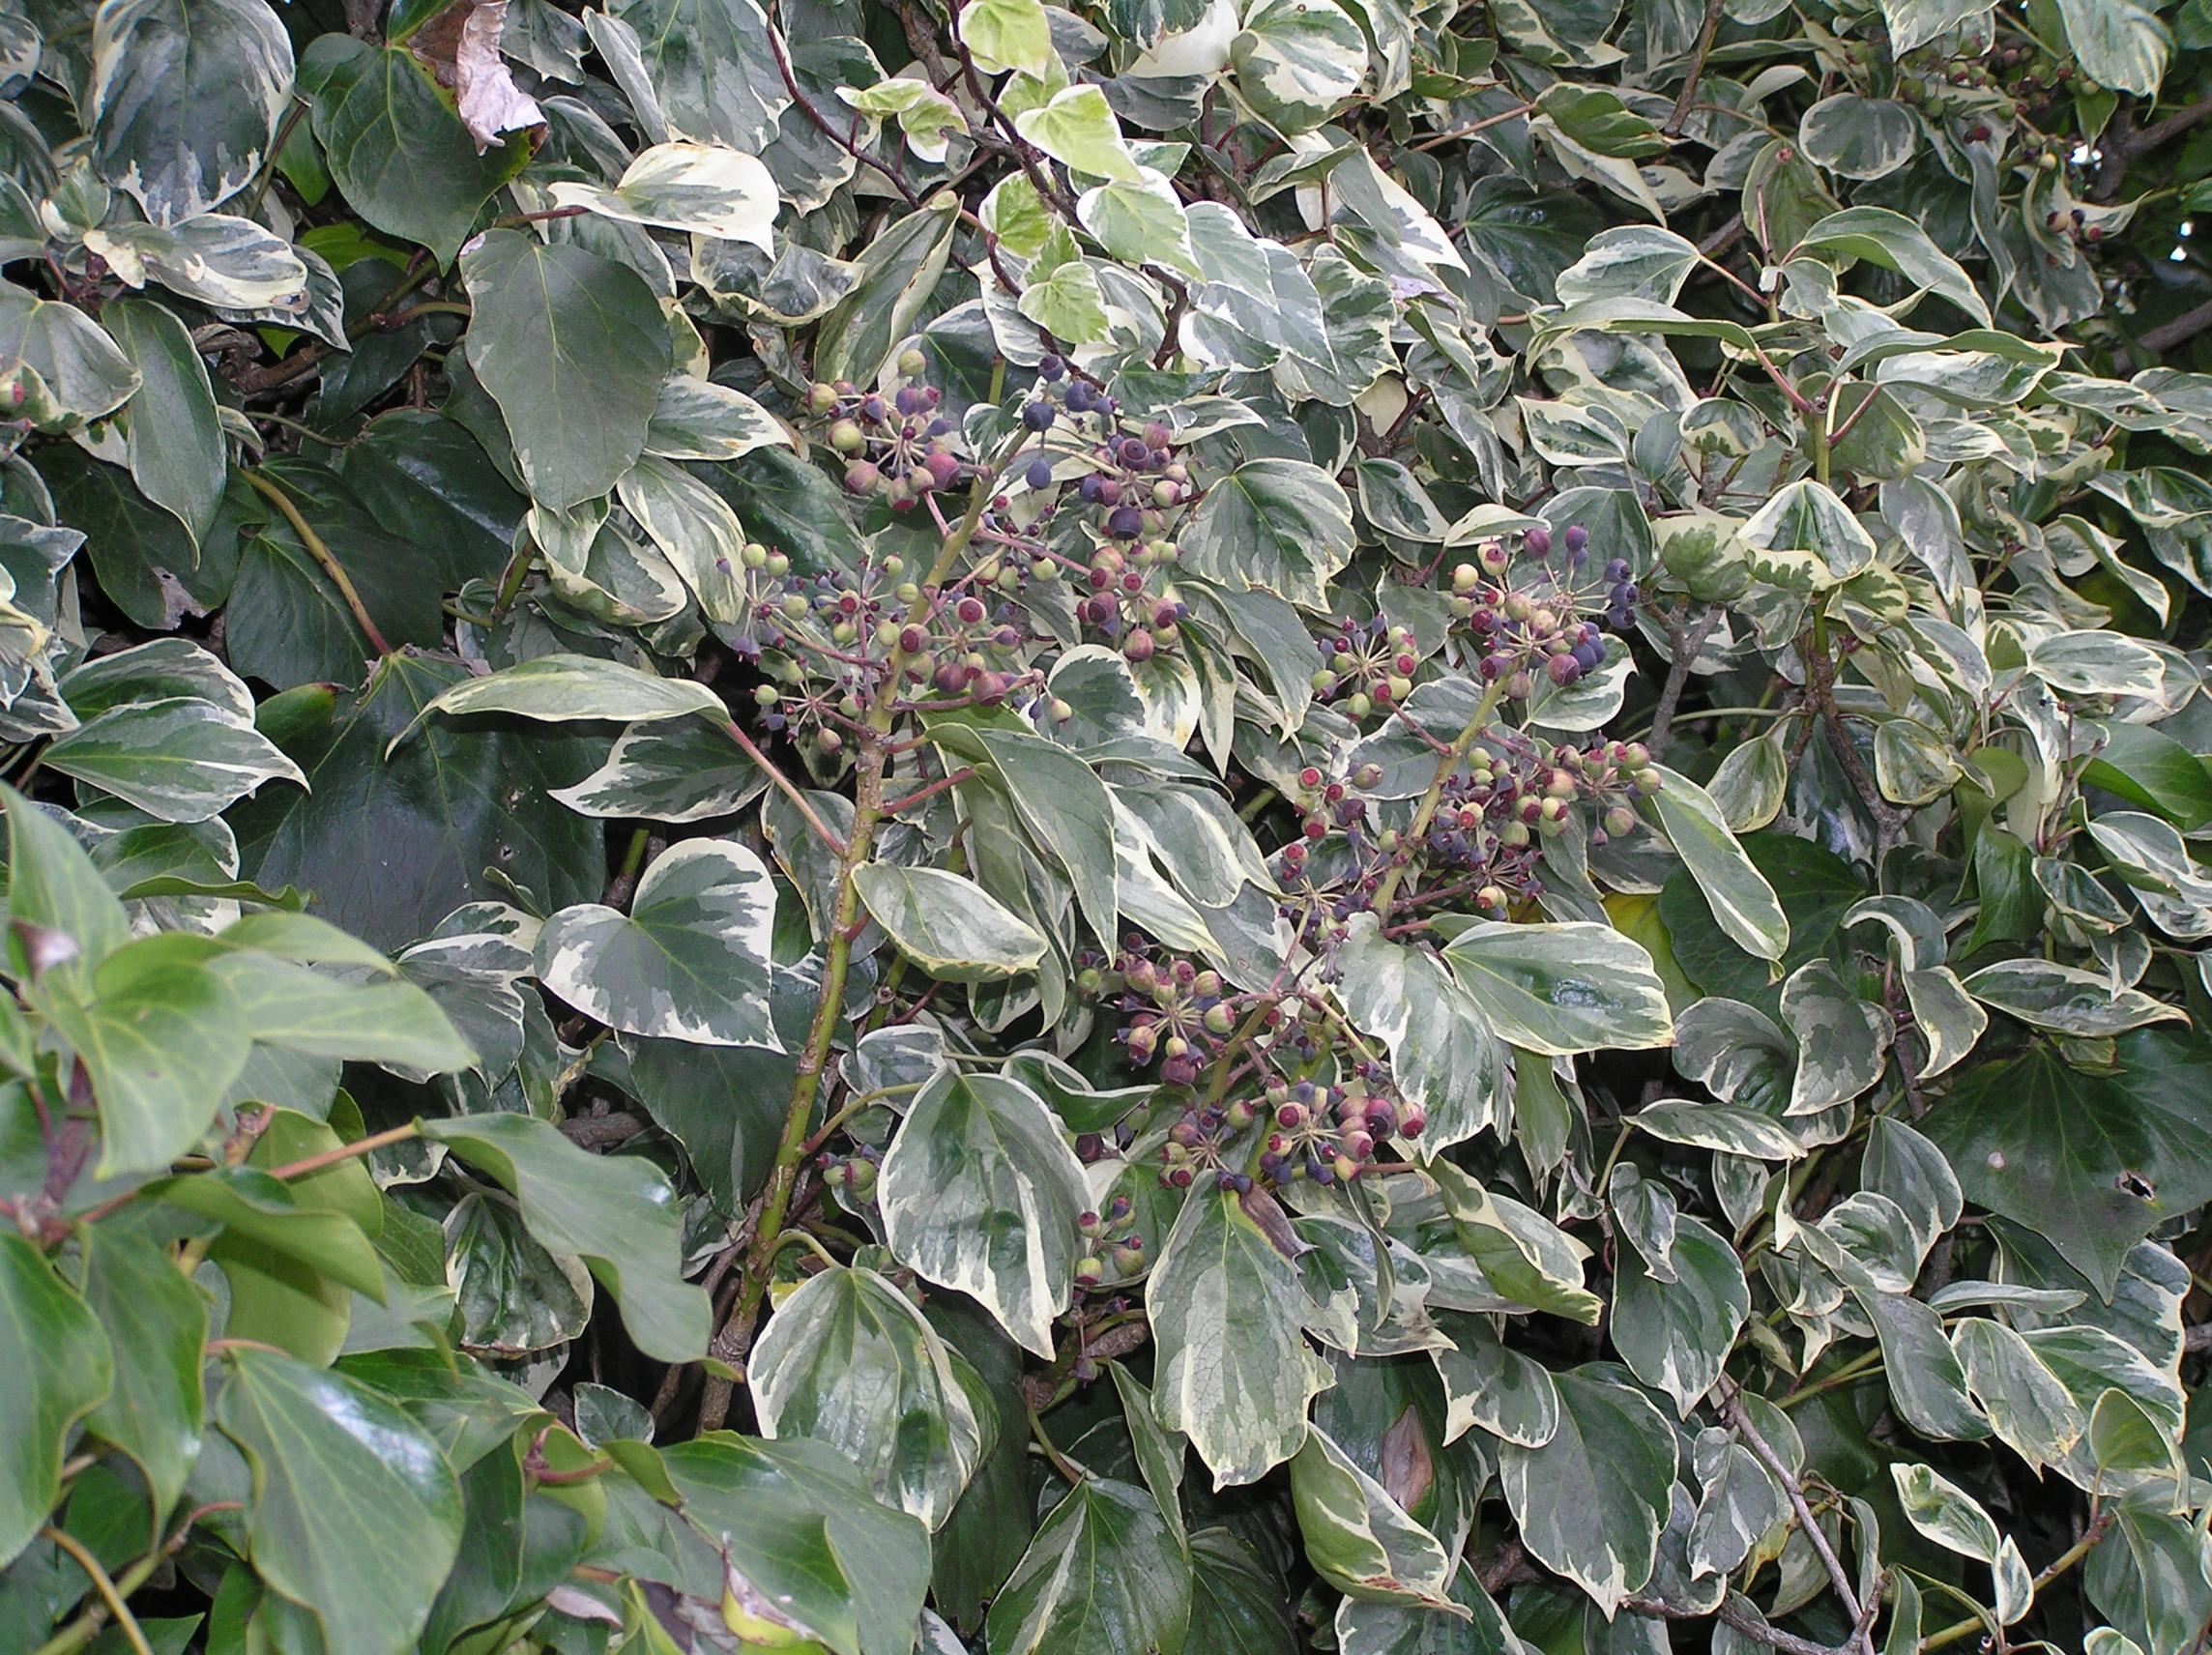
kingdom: Plantae
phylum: Tracheophyta
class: Magnoliopsida
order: Apiales
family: Araliaceae
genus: Hedera
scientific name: Hedera canariensis
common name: Madeira ivy
